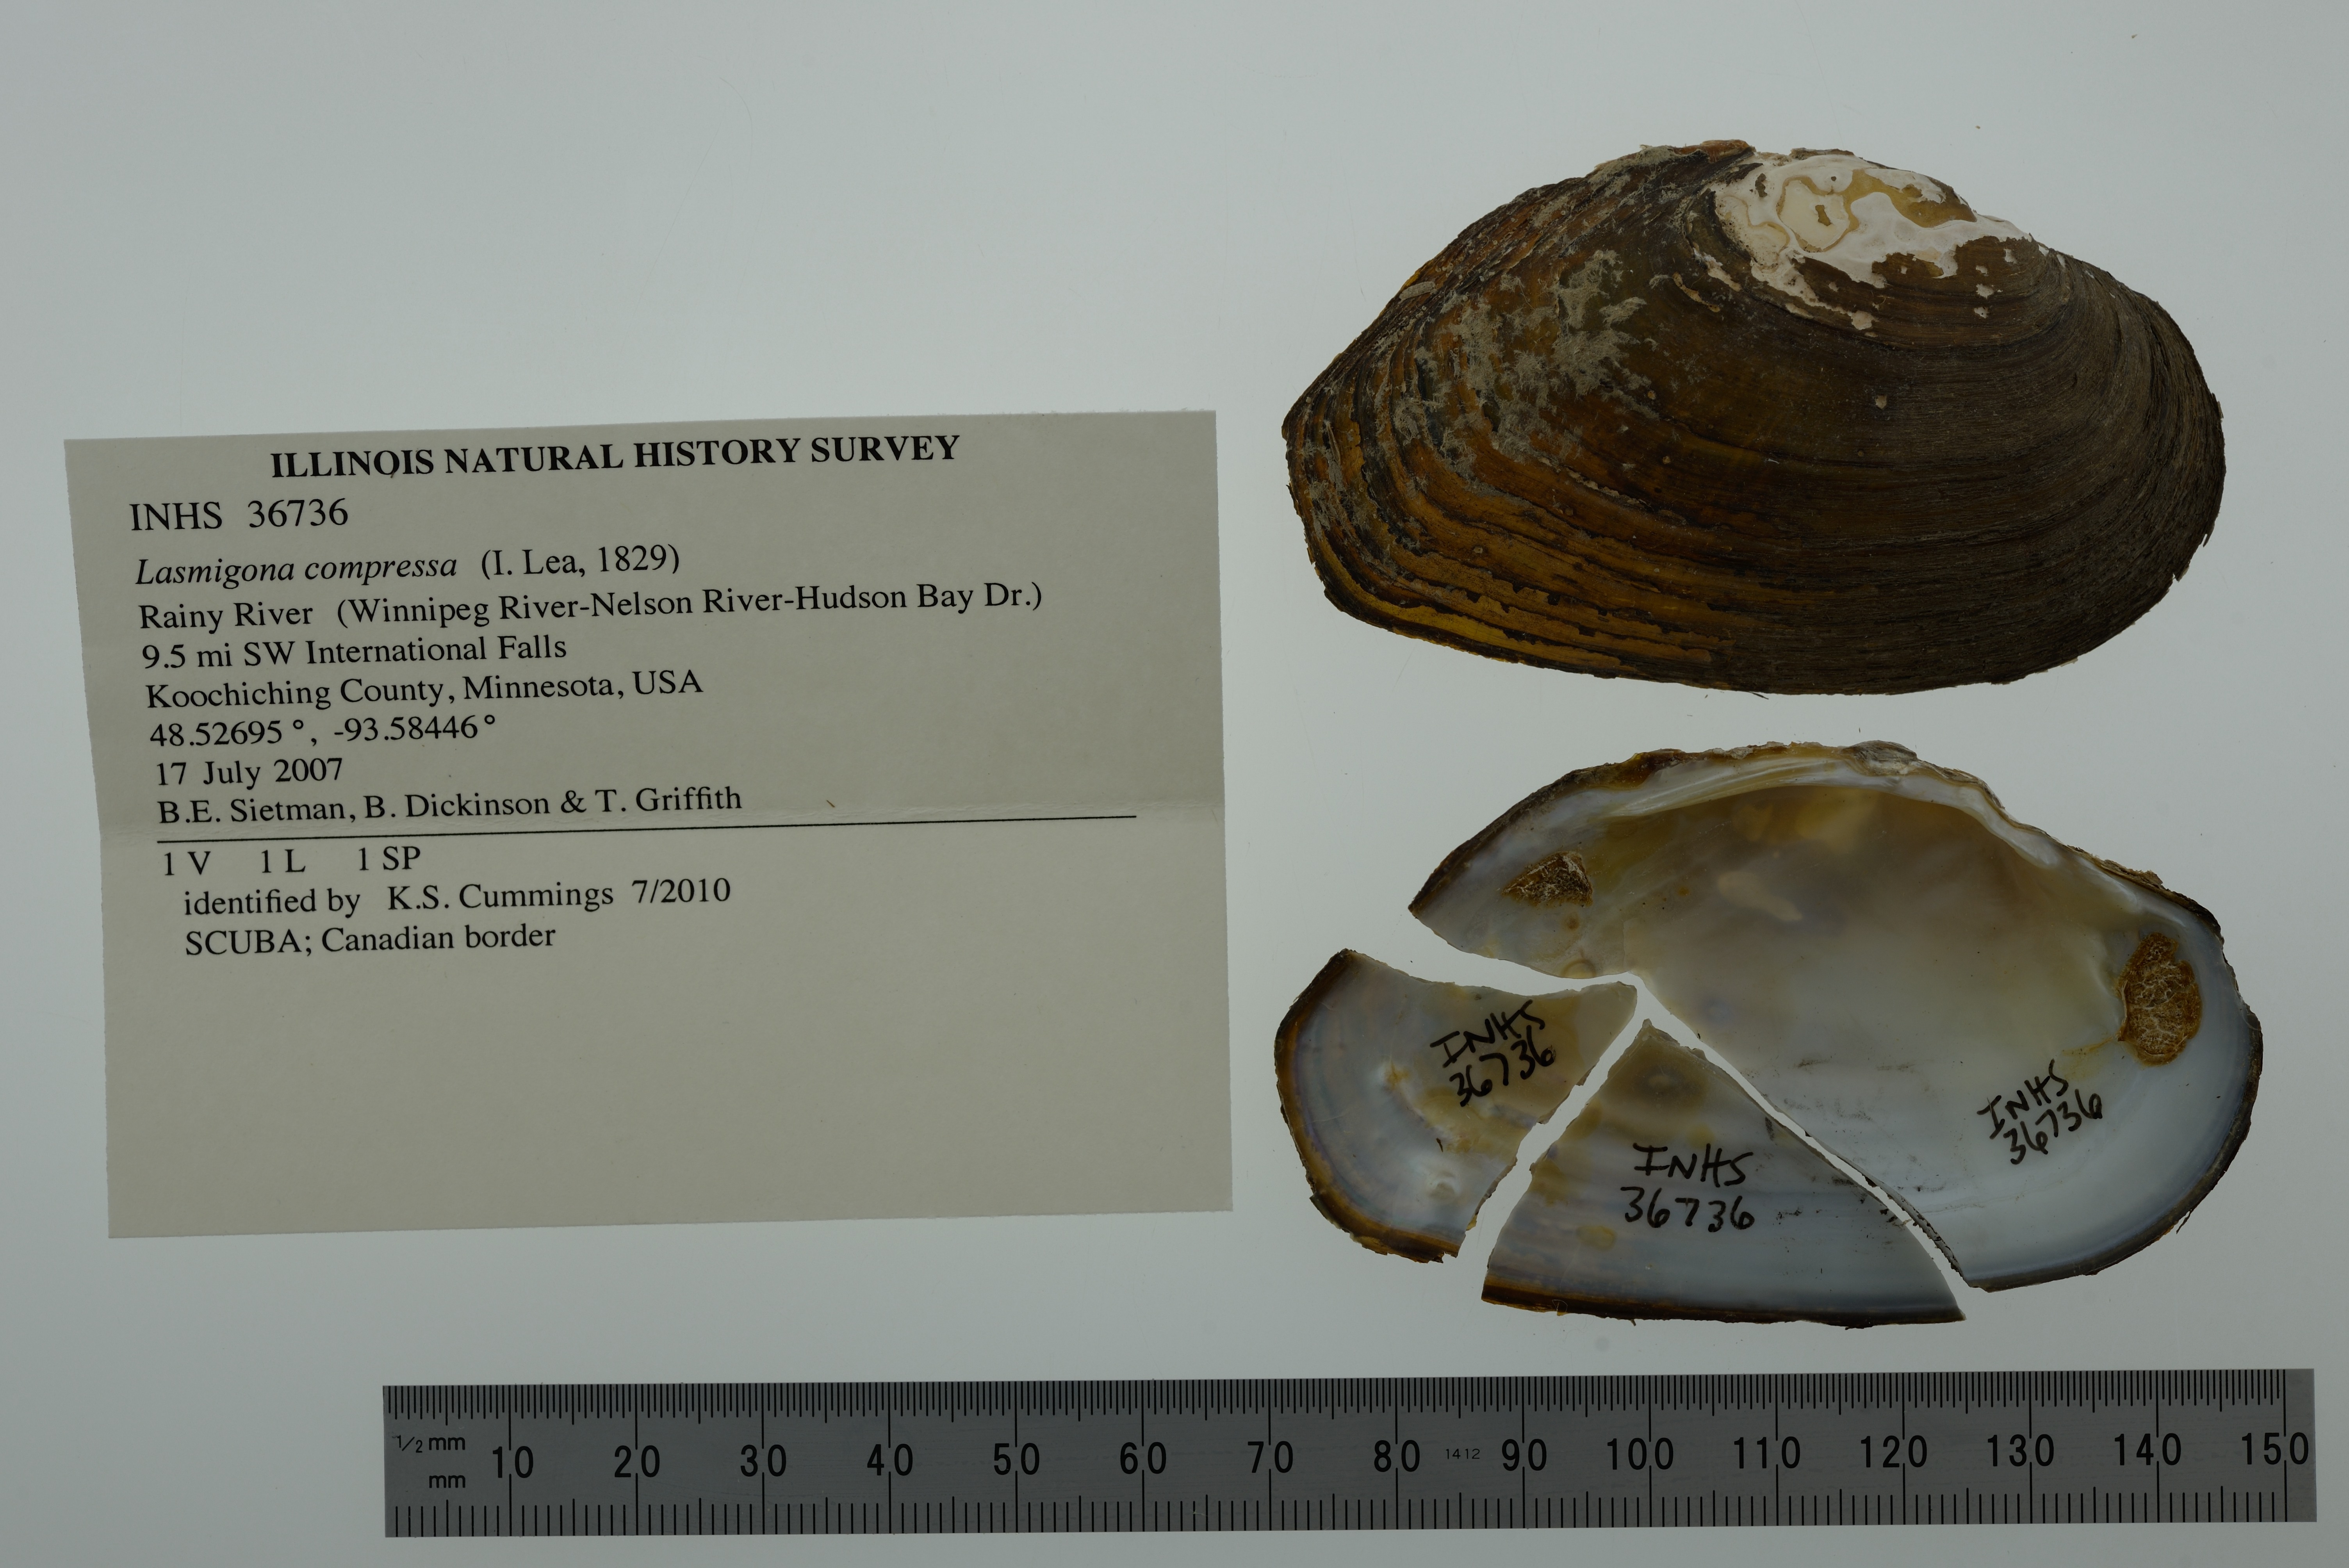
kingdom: Animalia
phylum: Mollusca
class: Bivalvia
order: Unionida
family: Unionidae
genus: Lasmigona
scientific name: Lasmigona compressa
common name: Creek heelsplitter
